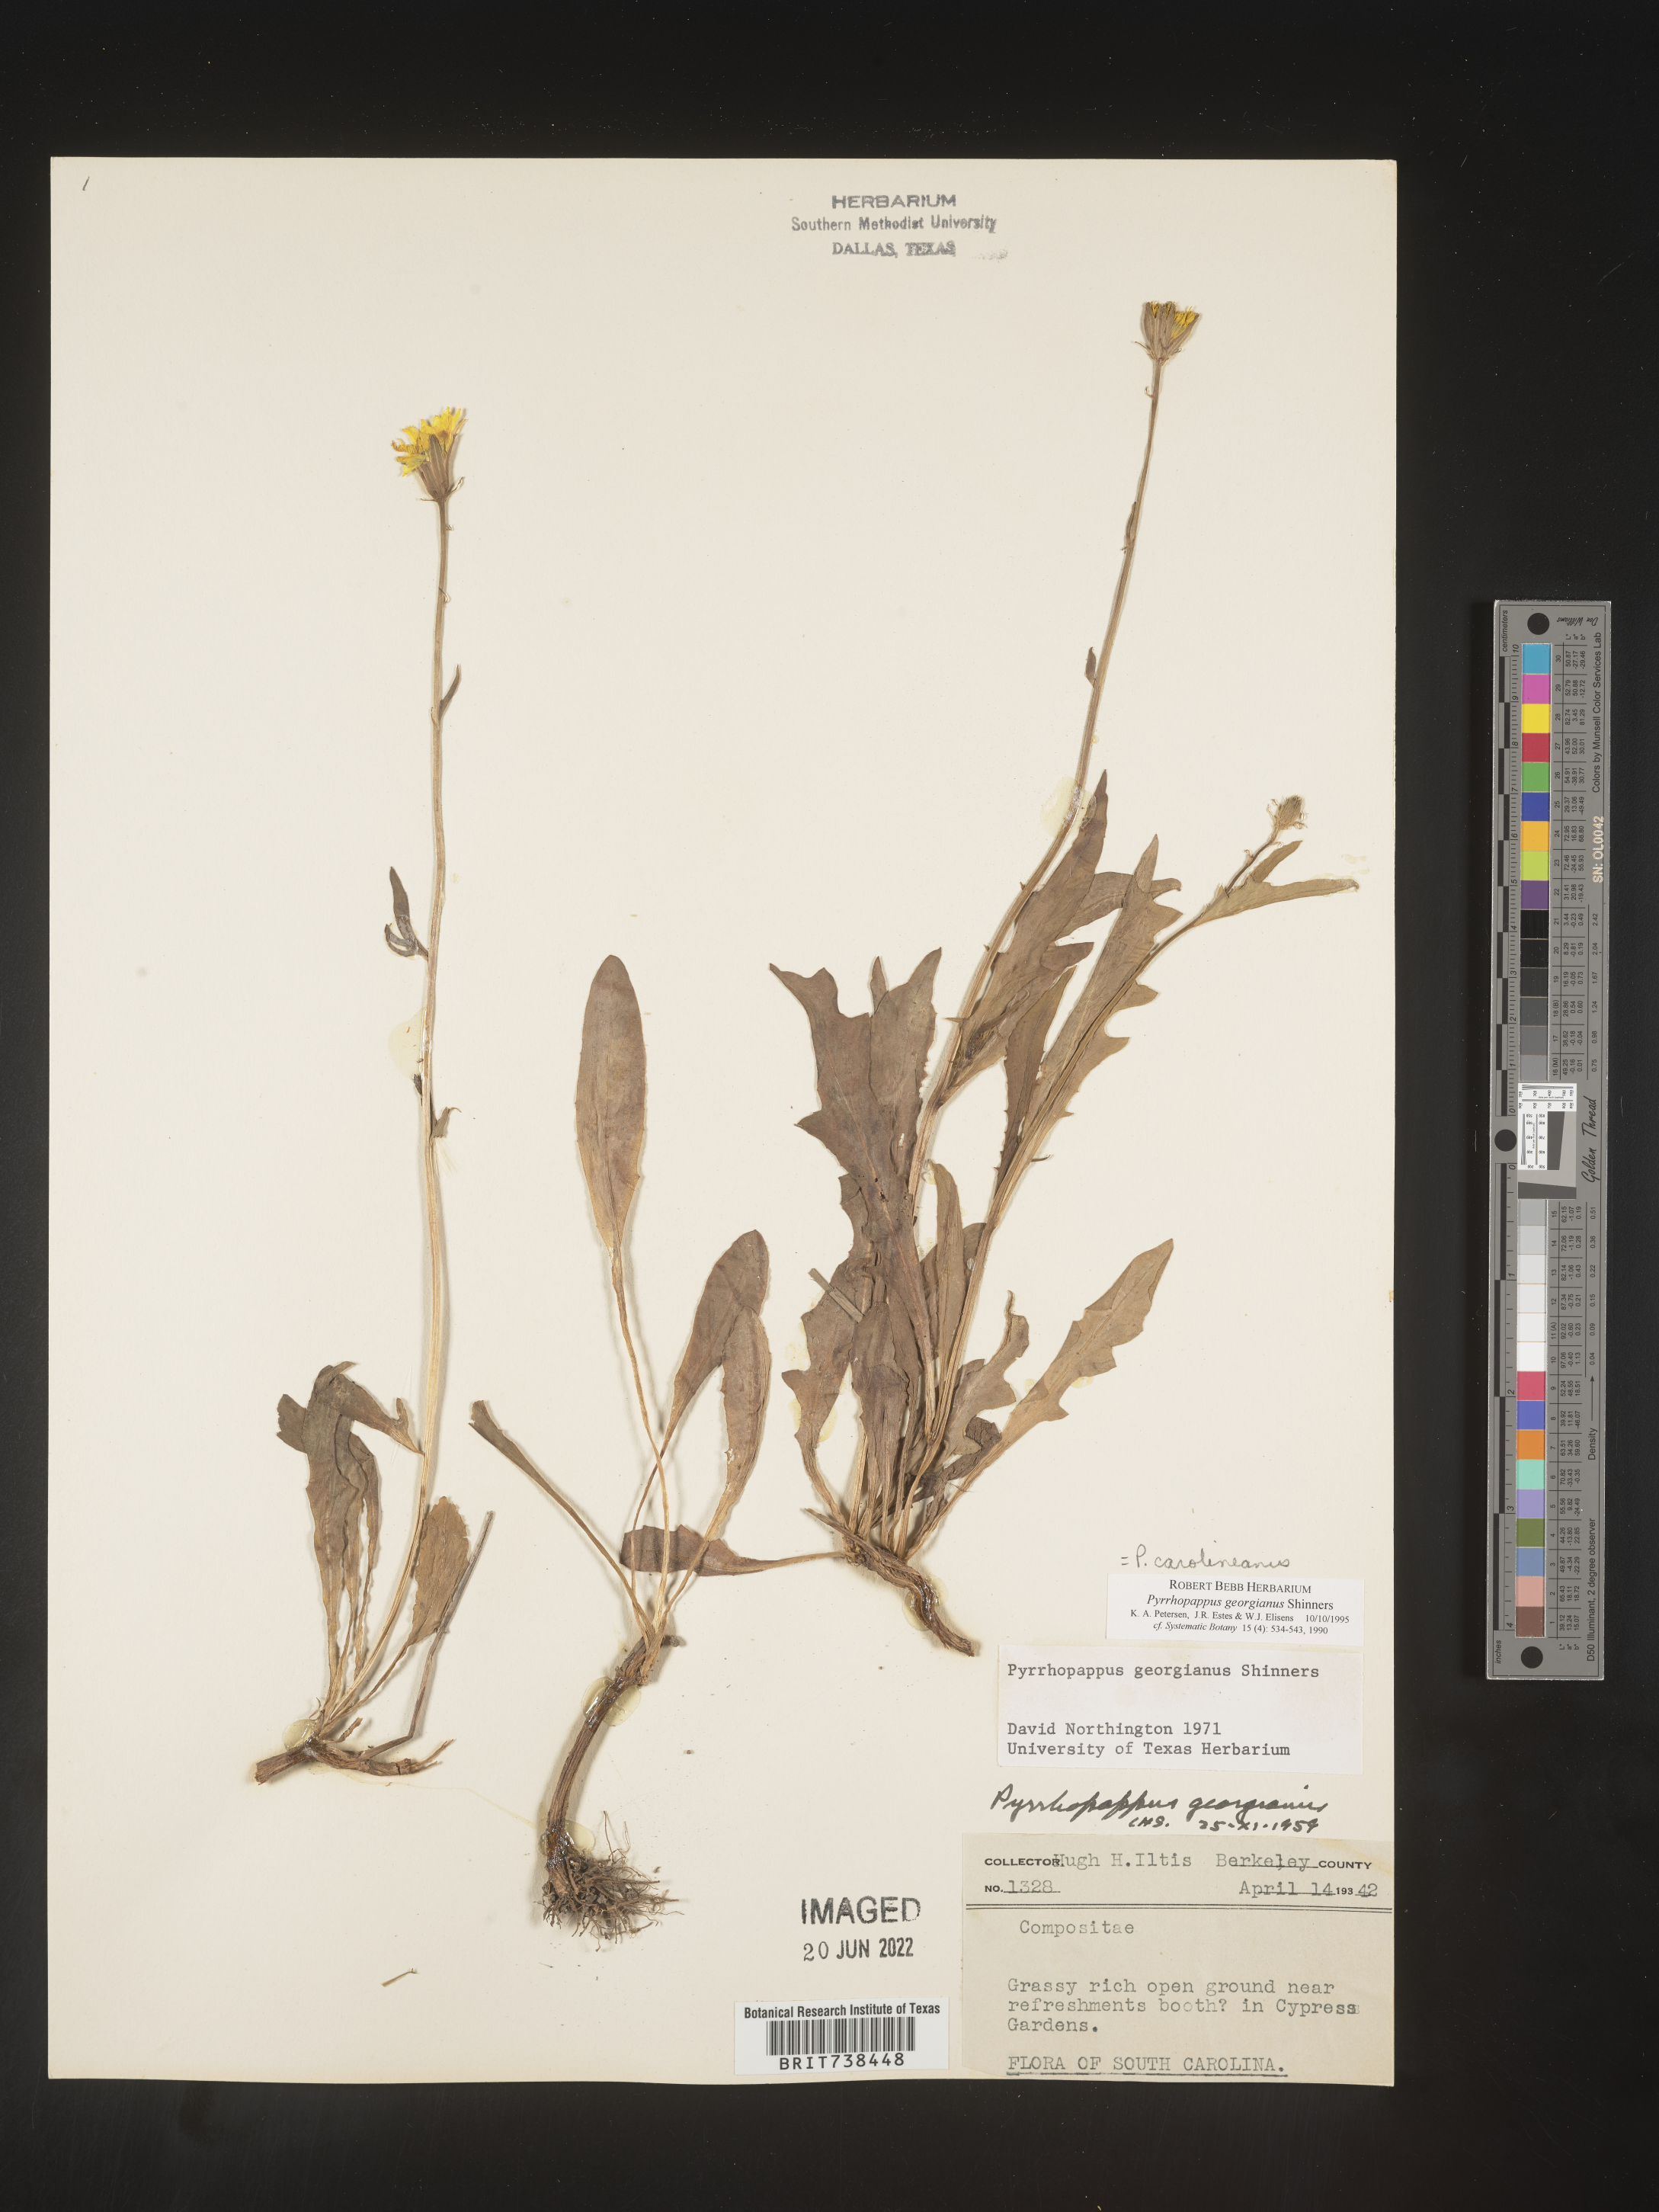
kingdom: Plantae
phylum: Tracheophyta
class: Magnoliopsida
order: Asterales
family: Asteraceae
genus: Pyrrhopappus
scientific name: Pyrrhopappus carolinianus
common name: Carolina desert-chicory
